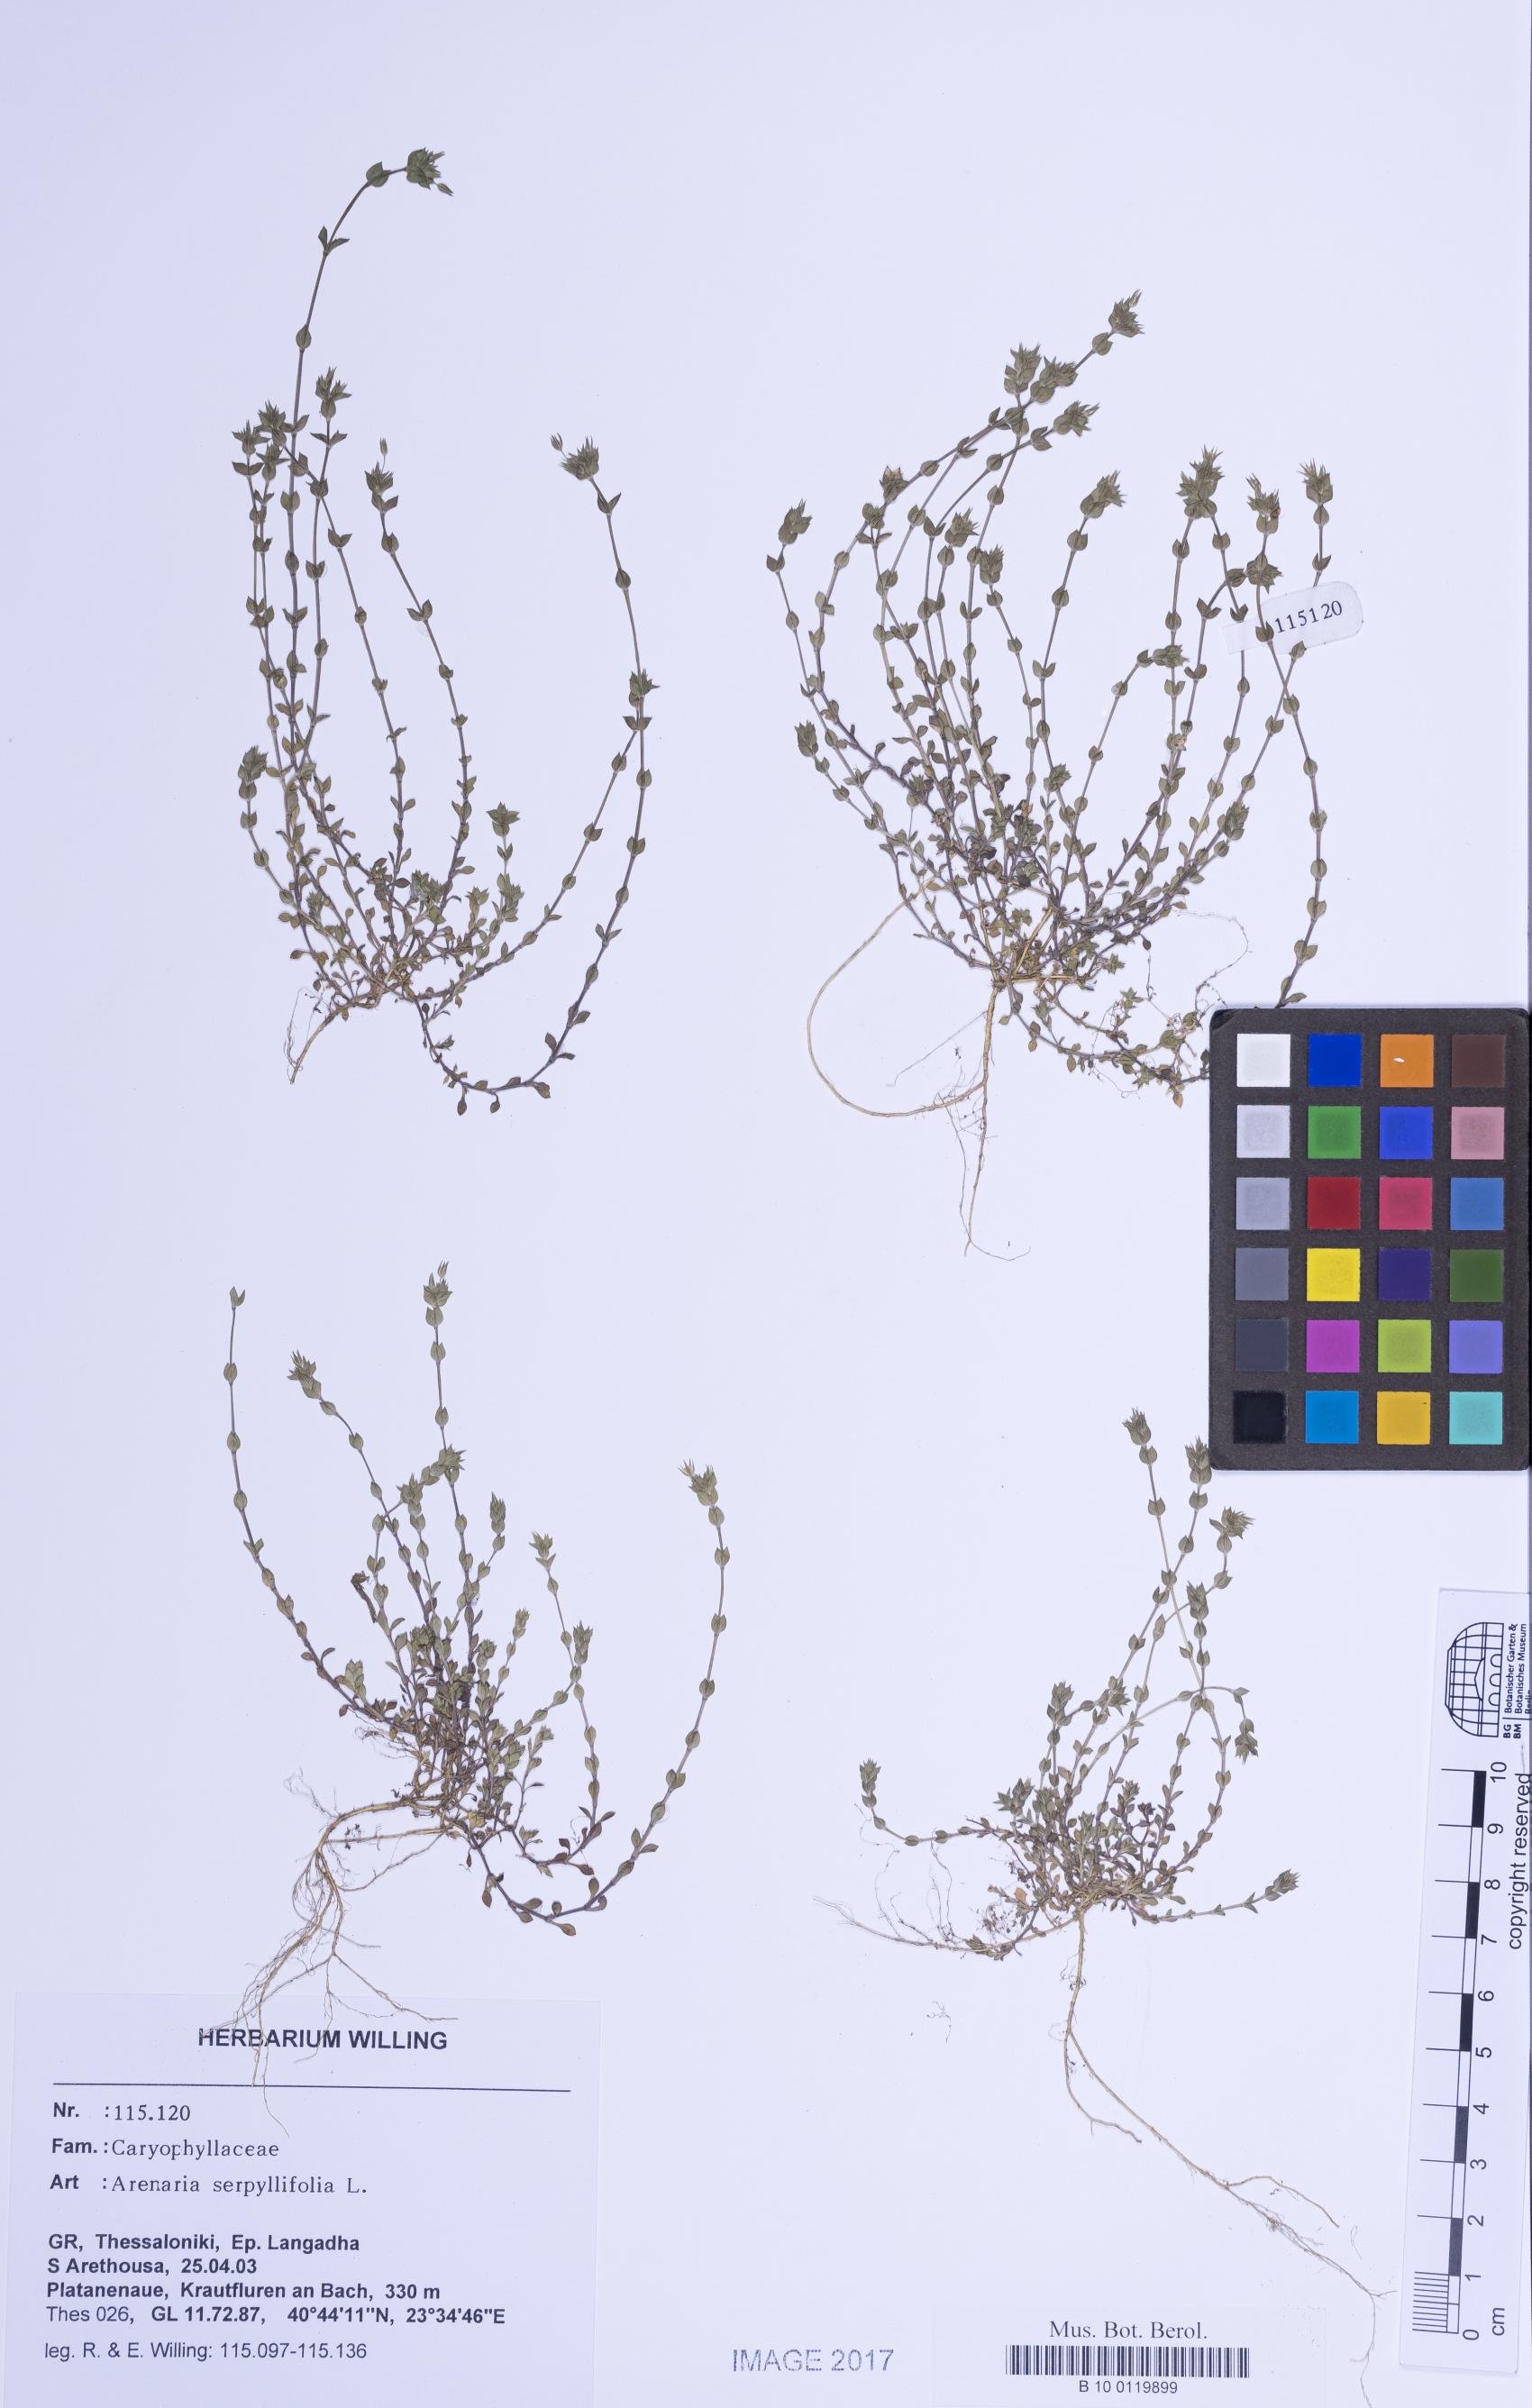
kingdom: Plantae
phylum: Tracheophyta
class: Magnoliopsida
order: Caryophyllales
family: Caryophyllaceae
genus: Arenaria
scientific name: Arenaria serpyllifolia
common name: Thyme-leaved sandwort
